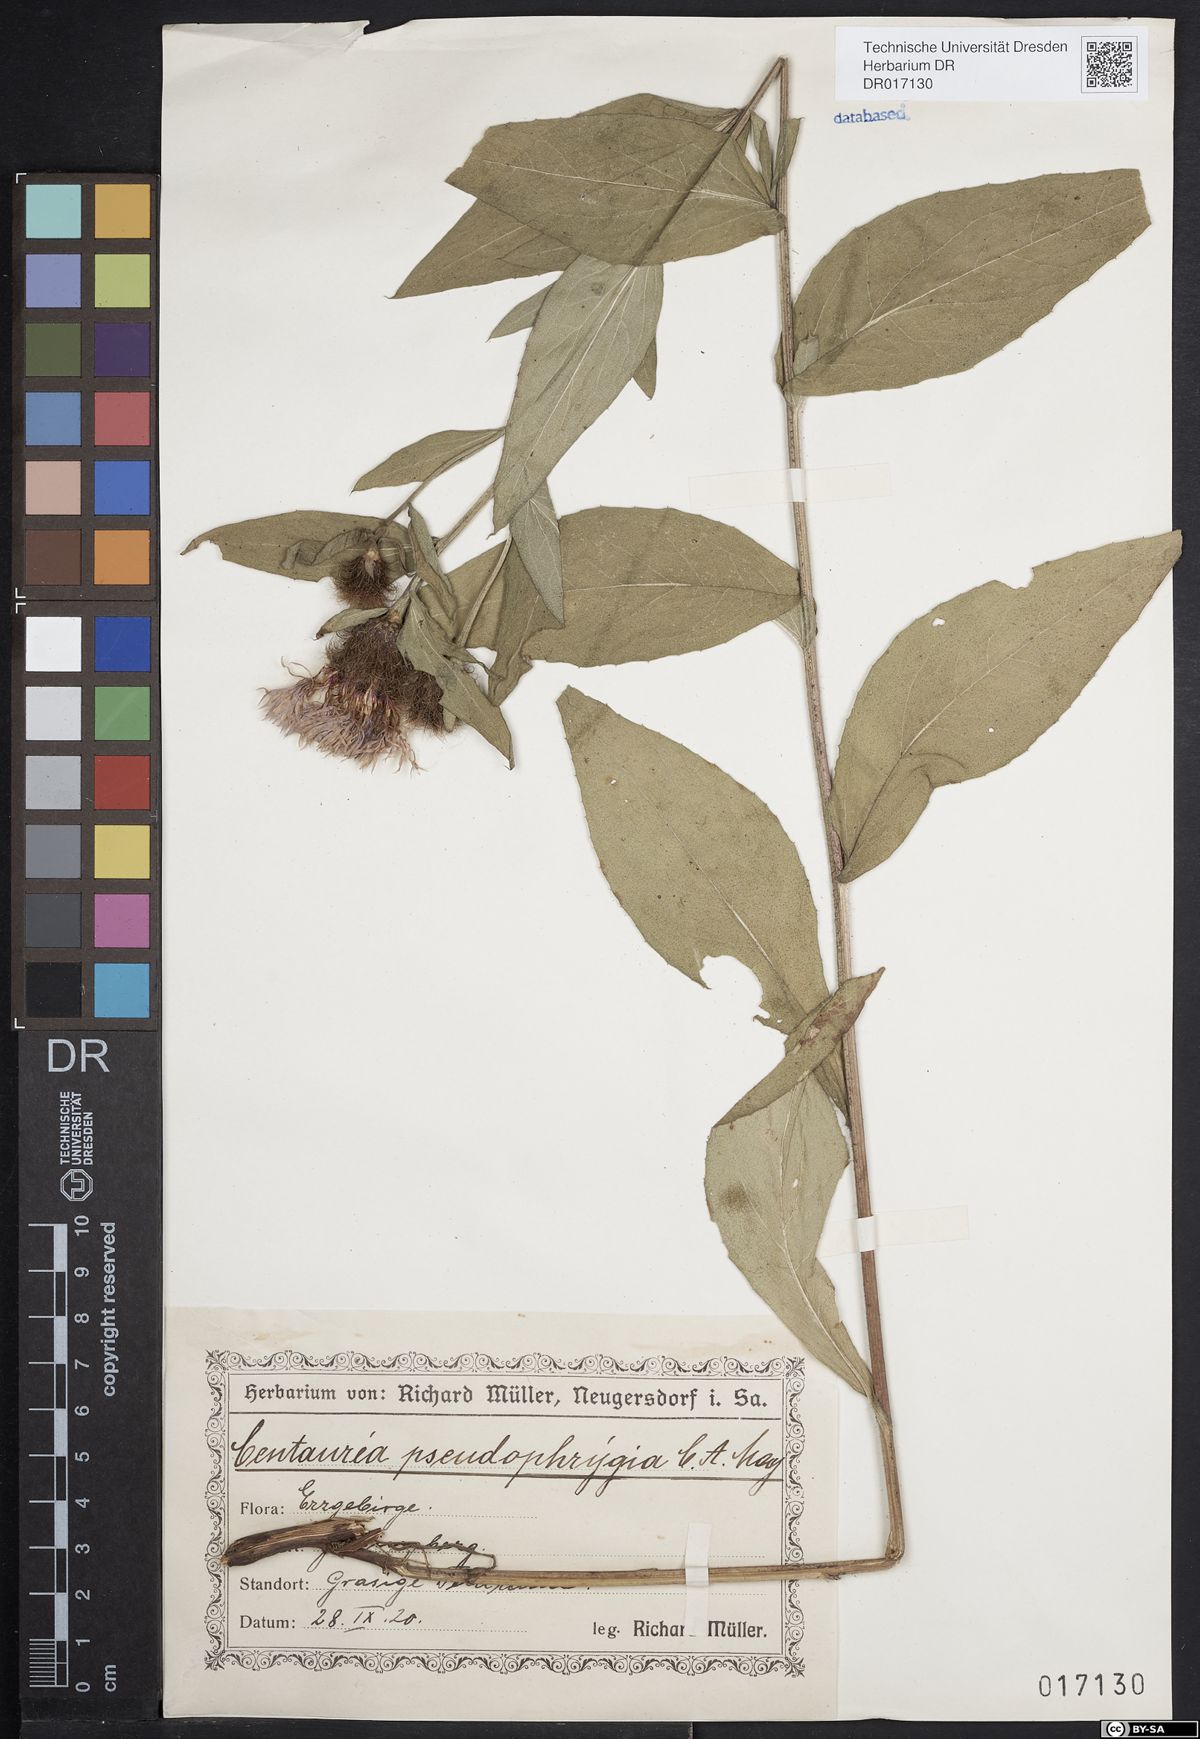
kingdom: Plantae
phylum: Tracheophyta
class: Magnoliopsida
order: Asterales
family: Asteraceae
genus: Centaurea
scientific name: Centaurea pseudophrygia
